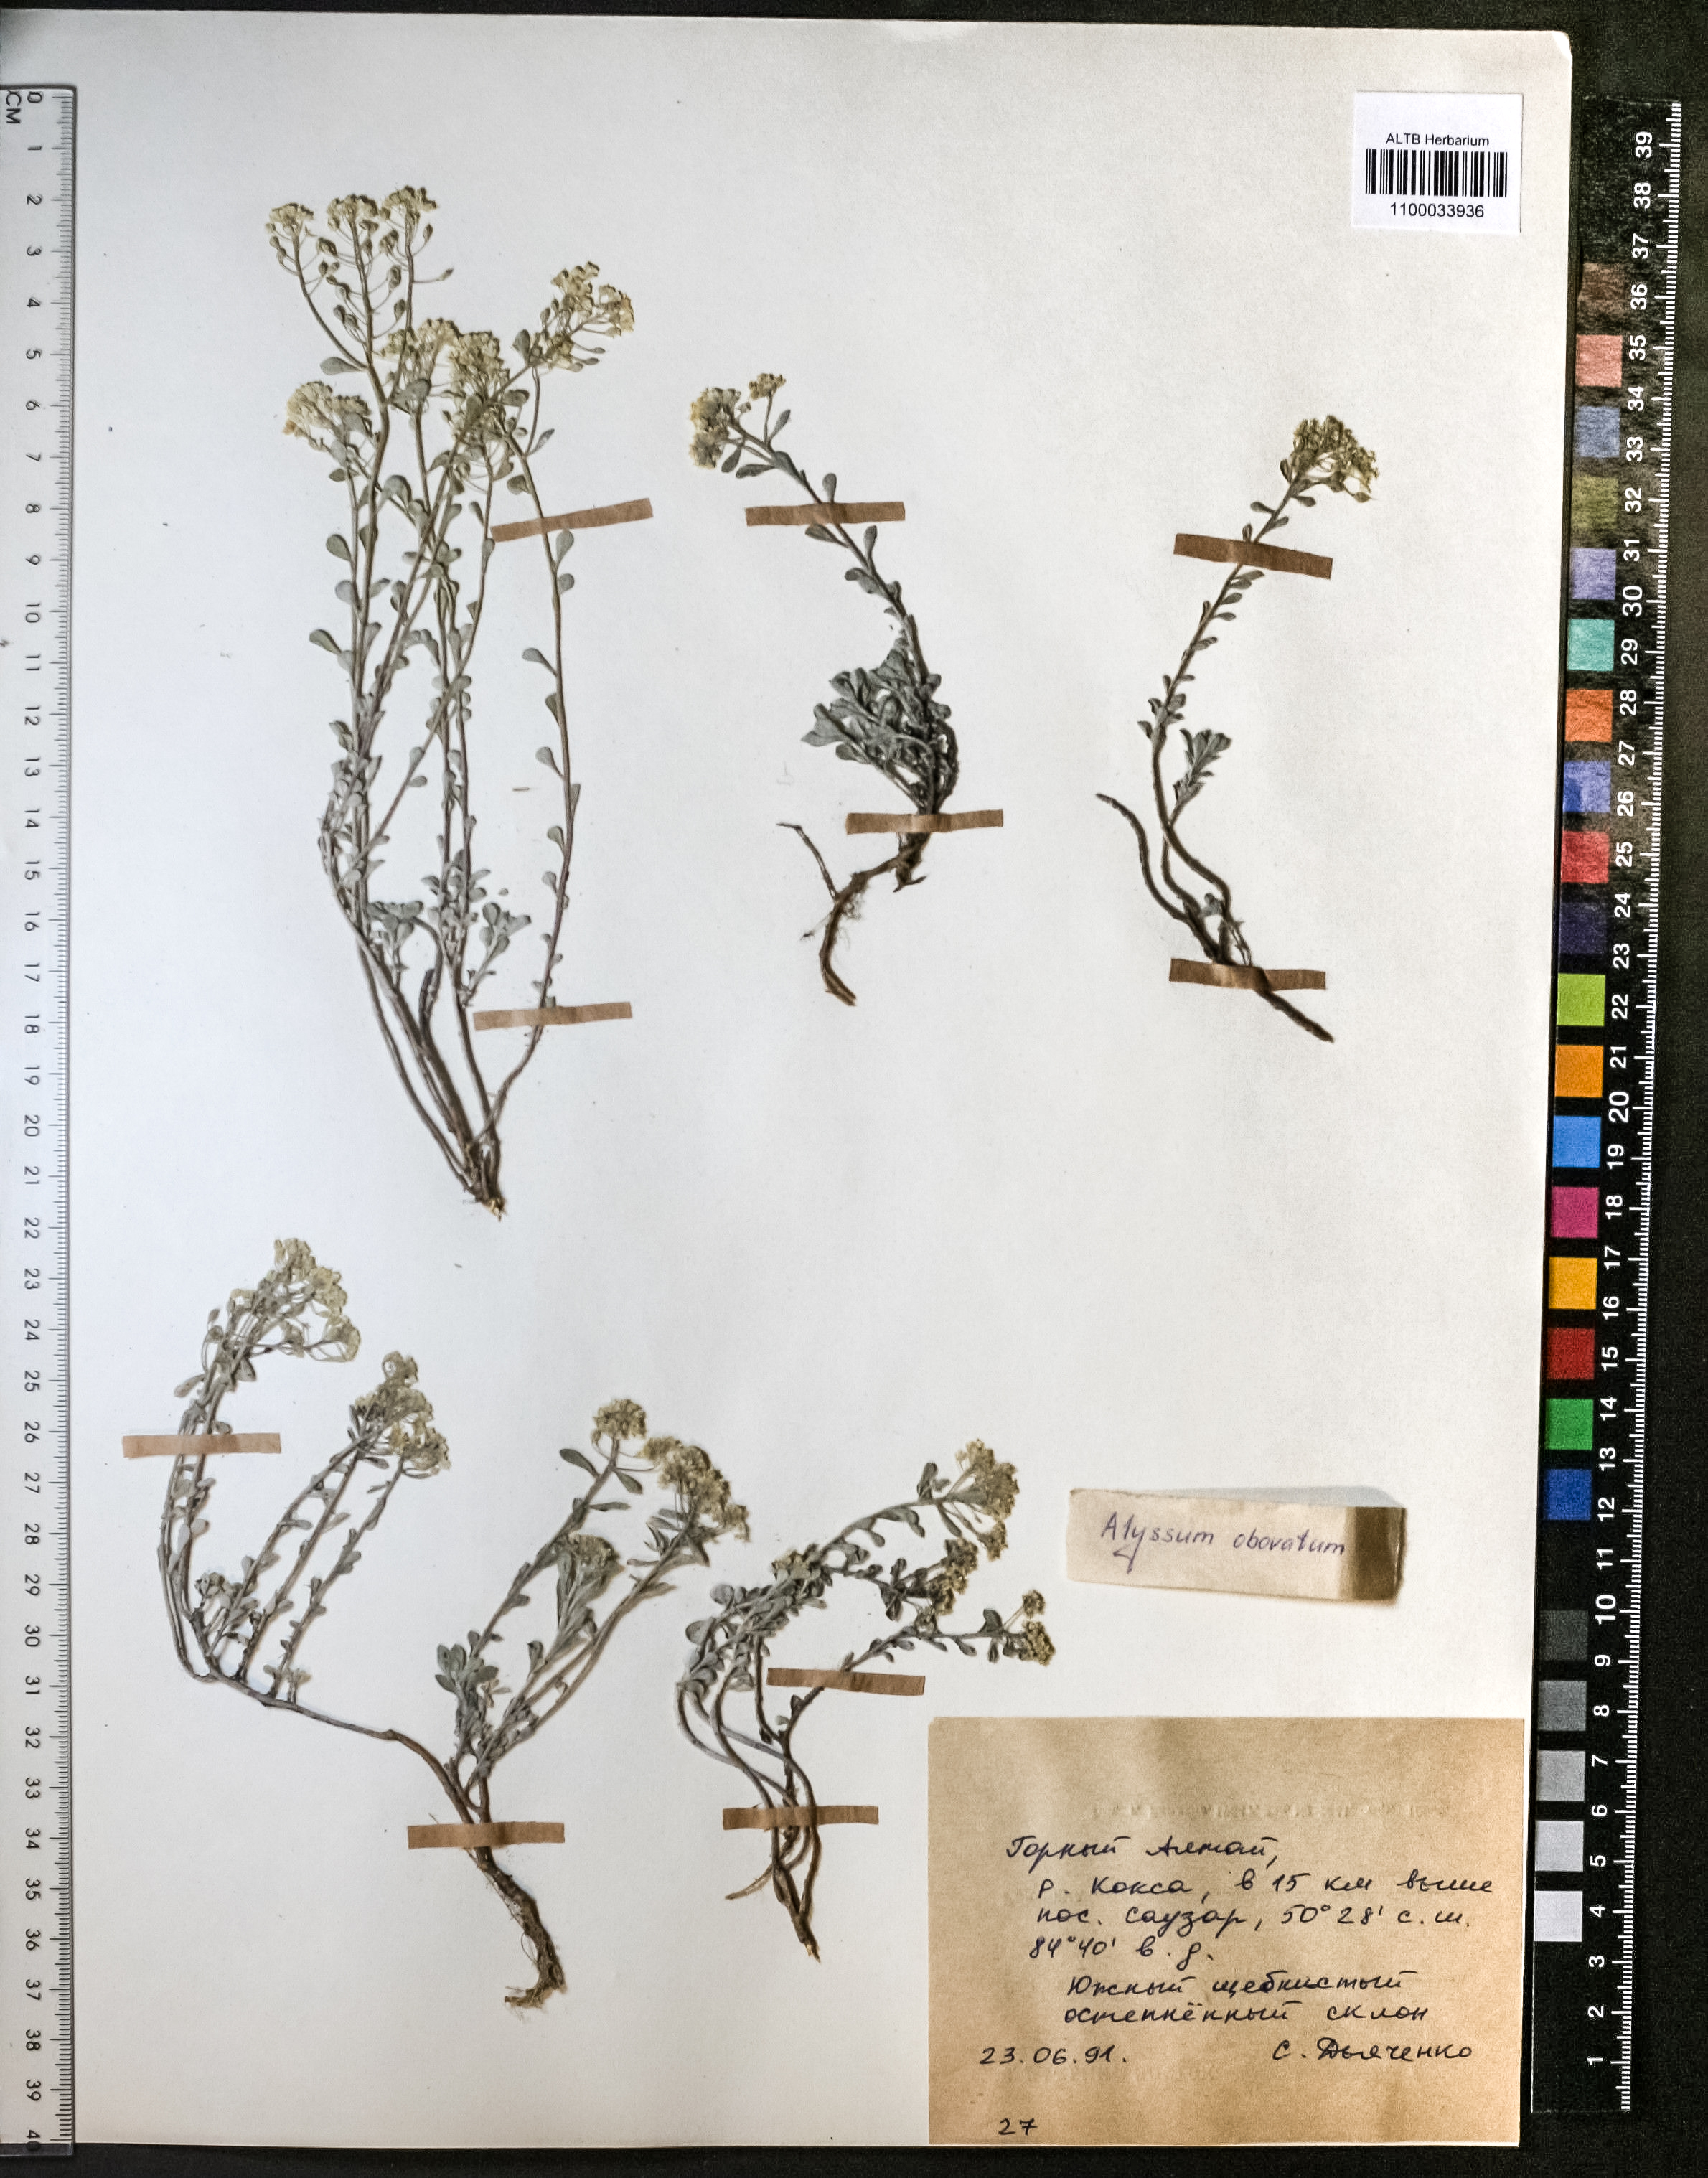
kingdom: Plantae
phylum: Tracheophyta
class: Magnoliopsida
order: Brassicales
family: Brassicaceae
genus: Odontarrhena
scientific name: Odontarrhena obovata
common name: American alyssum
